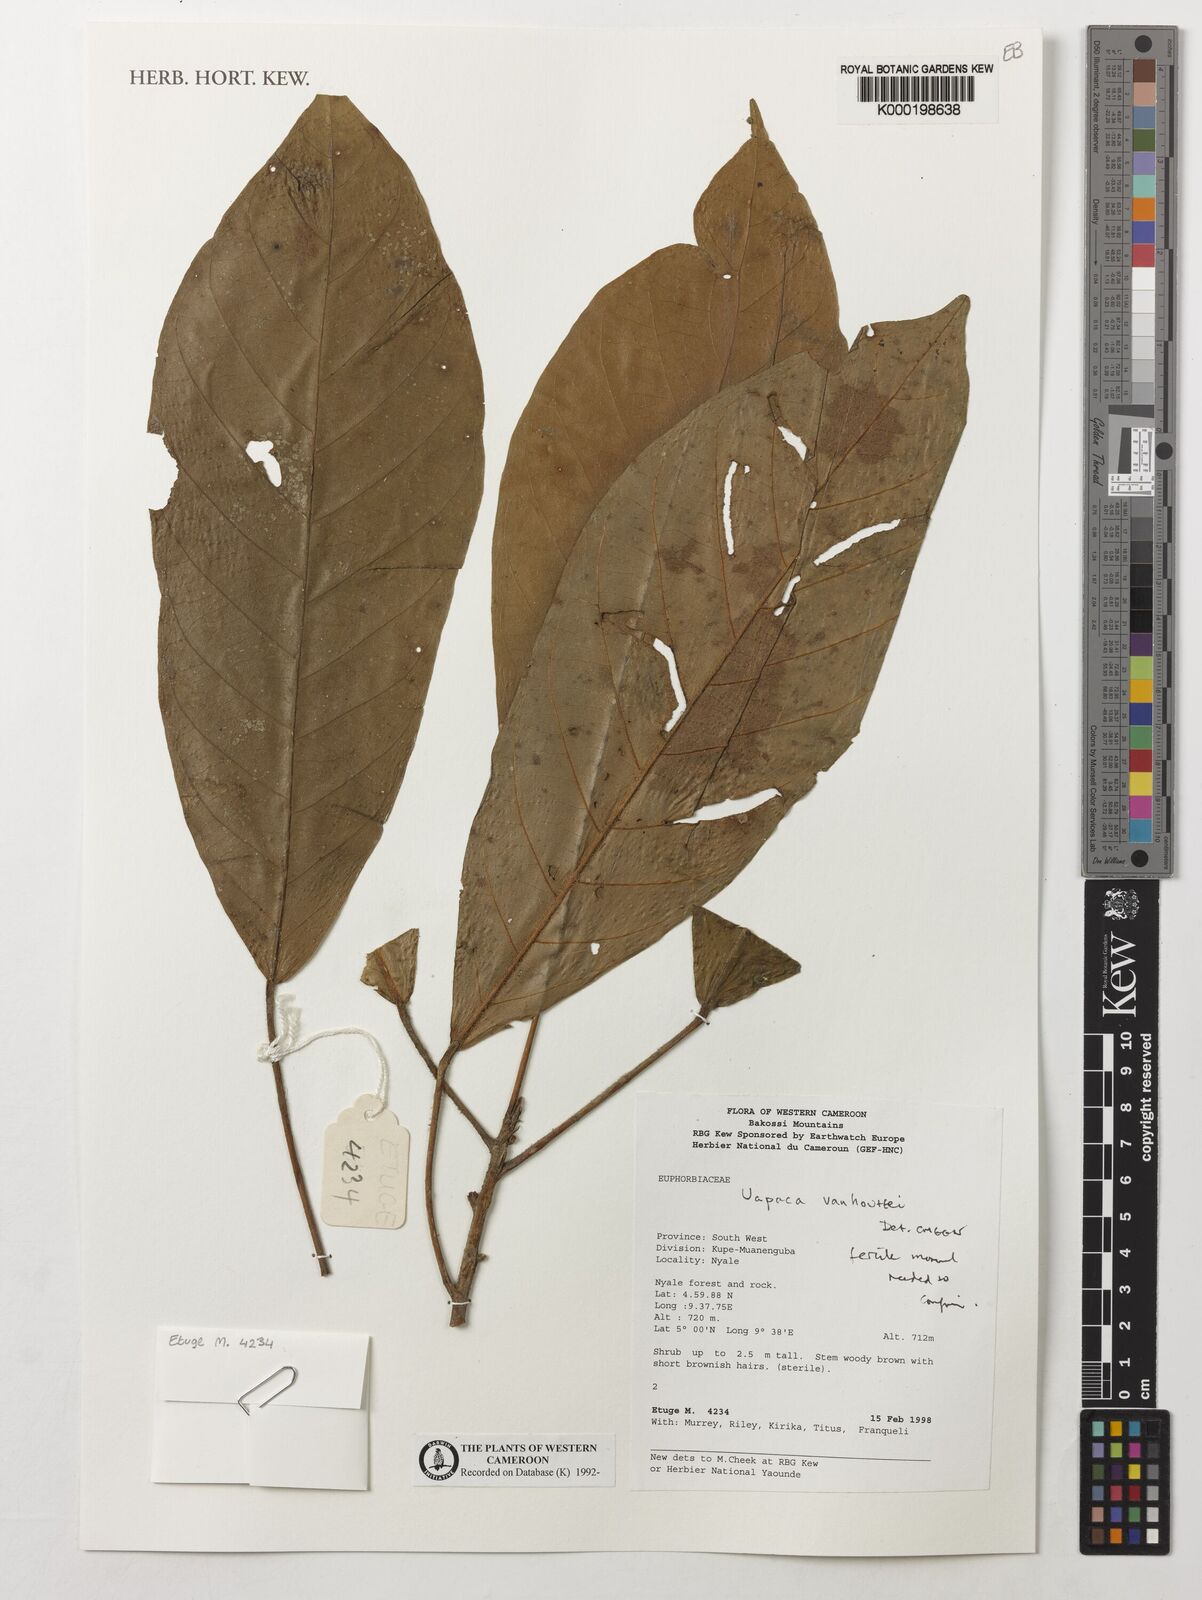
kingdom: Plantae
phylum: Tracheophyta
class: Magnoliopsida
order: Malpighiales
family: Phyllanthaceae
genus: Uapaca
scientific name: Uapaca vanhouttei
